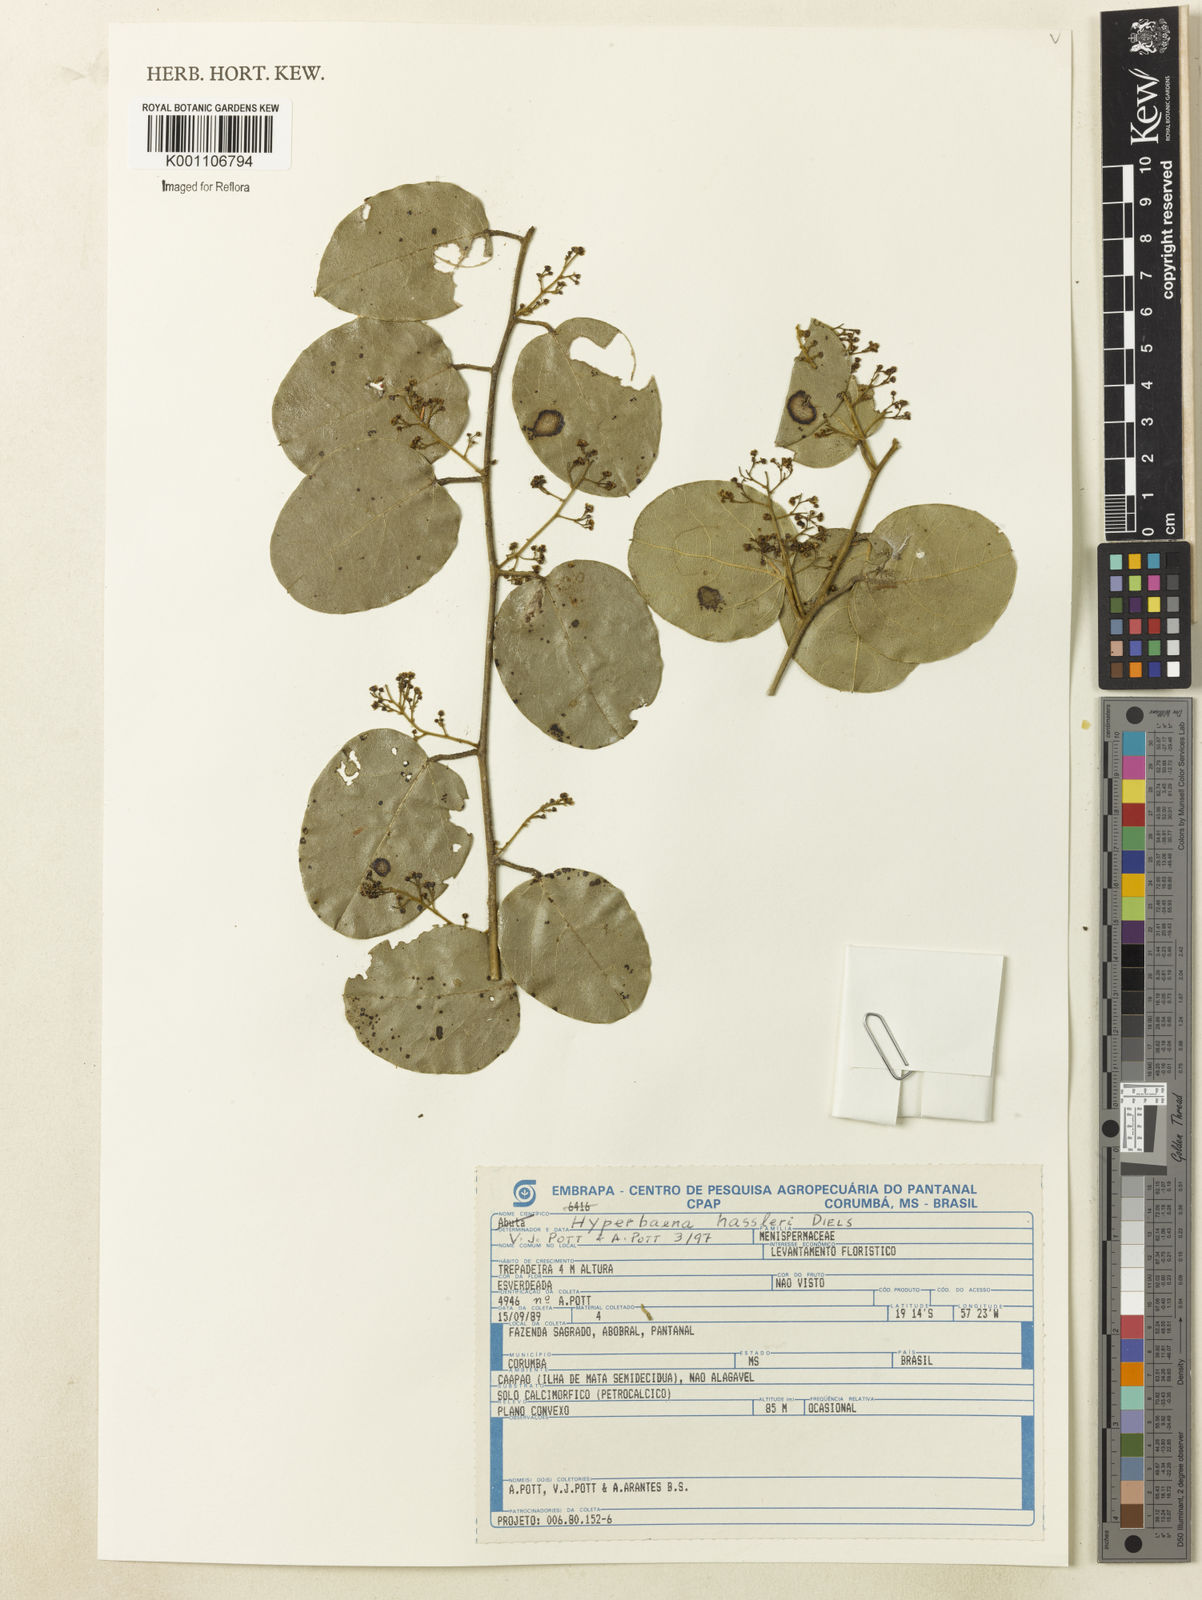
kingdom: Plantae
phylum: Tracheophyta
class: Magnoliopsida
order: Ranunculales
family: Menispermaceae
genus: Hyperbaena
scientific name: Hyperbaena hassleri
